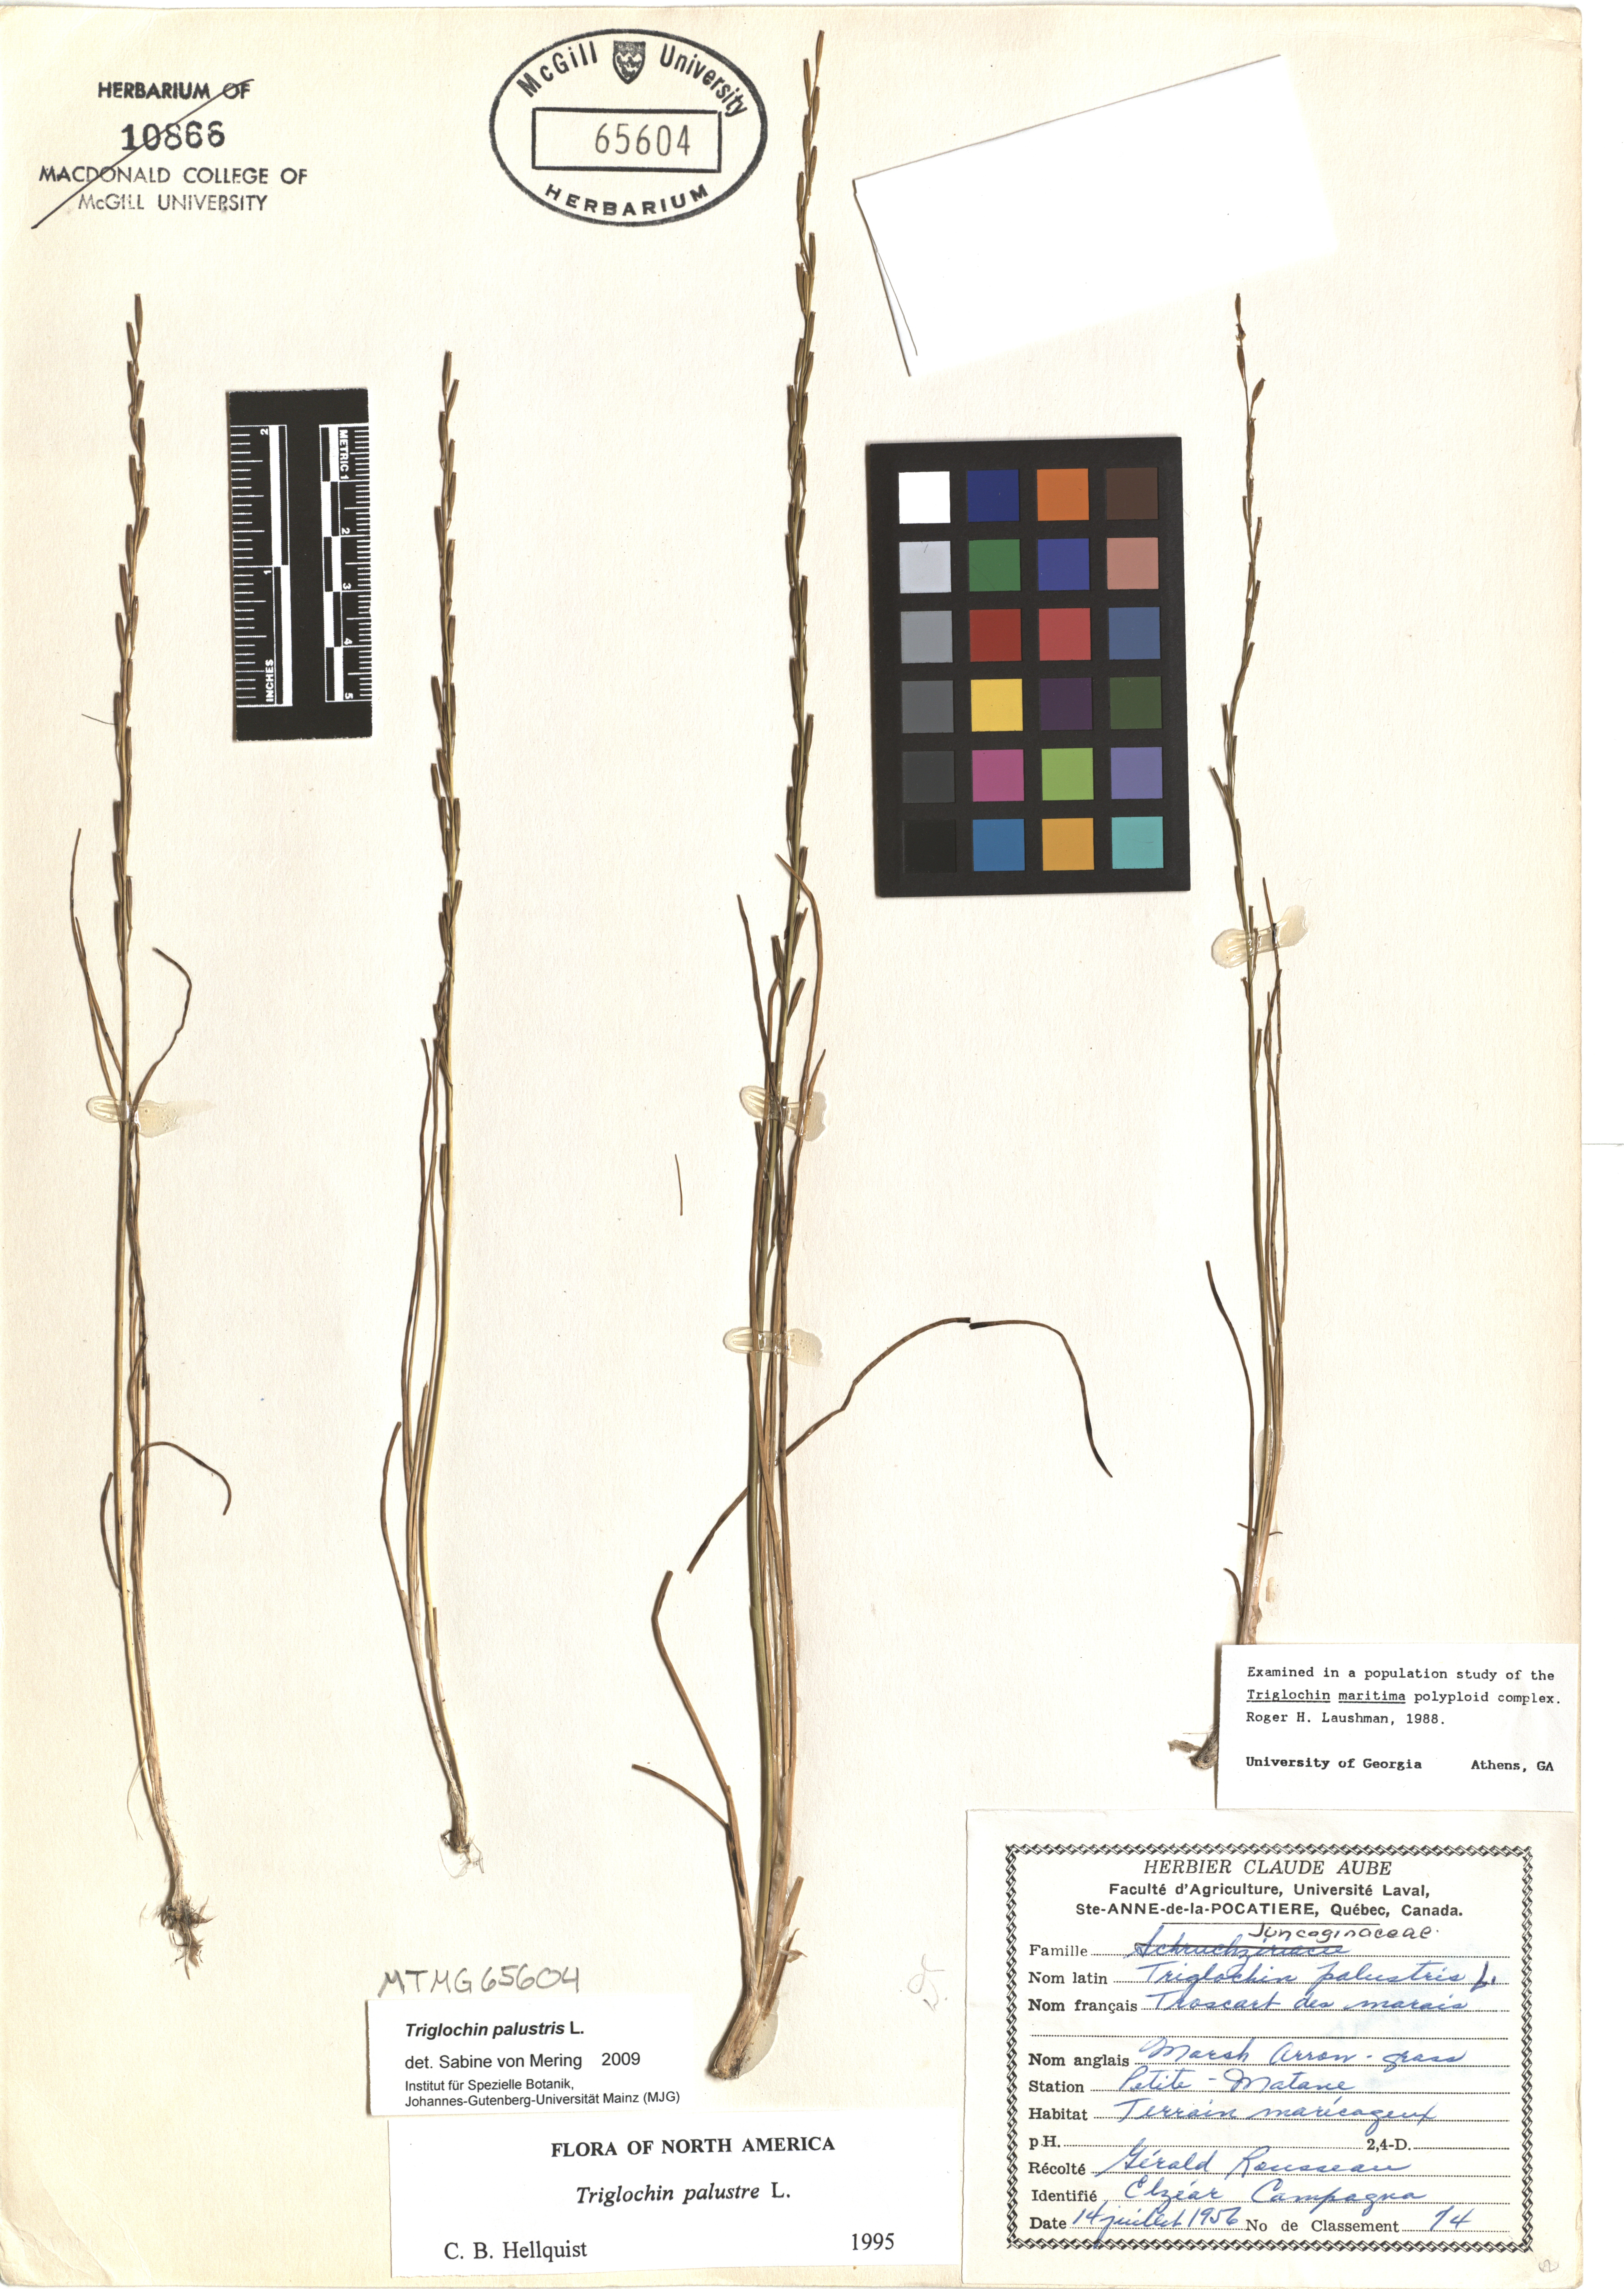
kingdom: Plantae
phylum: Tracheophyta
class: Liliopsida
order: Alismatales
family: Juncaginaceae
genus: Triglochin
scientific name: Triglochin palustris
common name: Marsh arrowgrass
